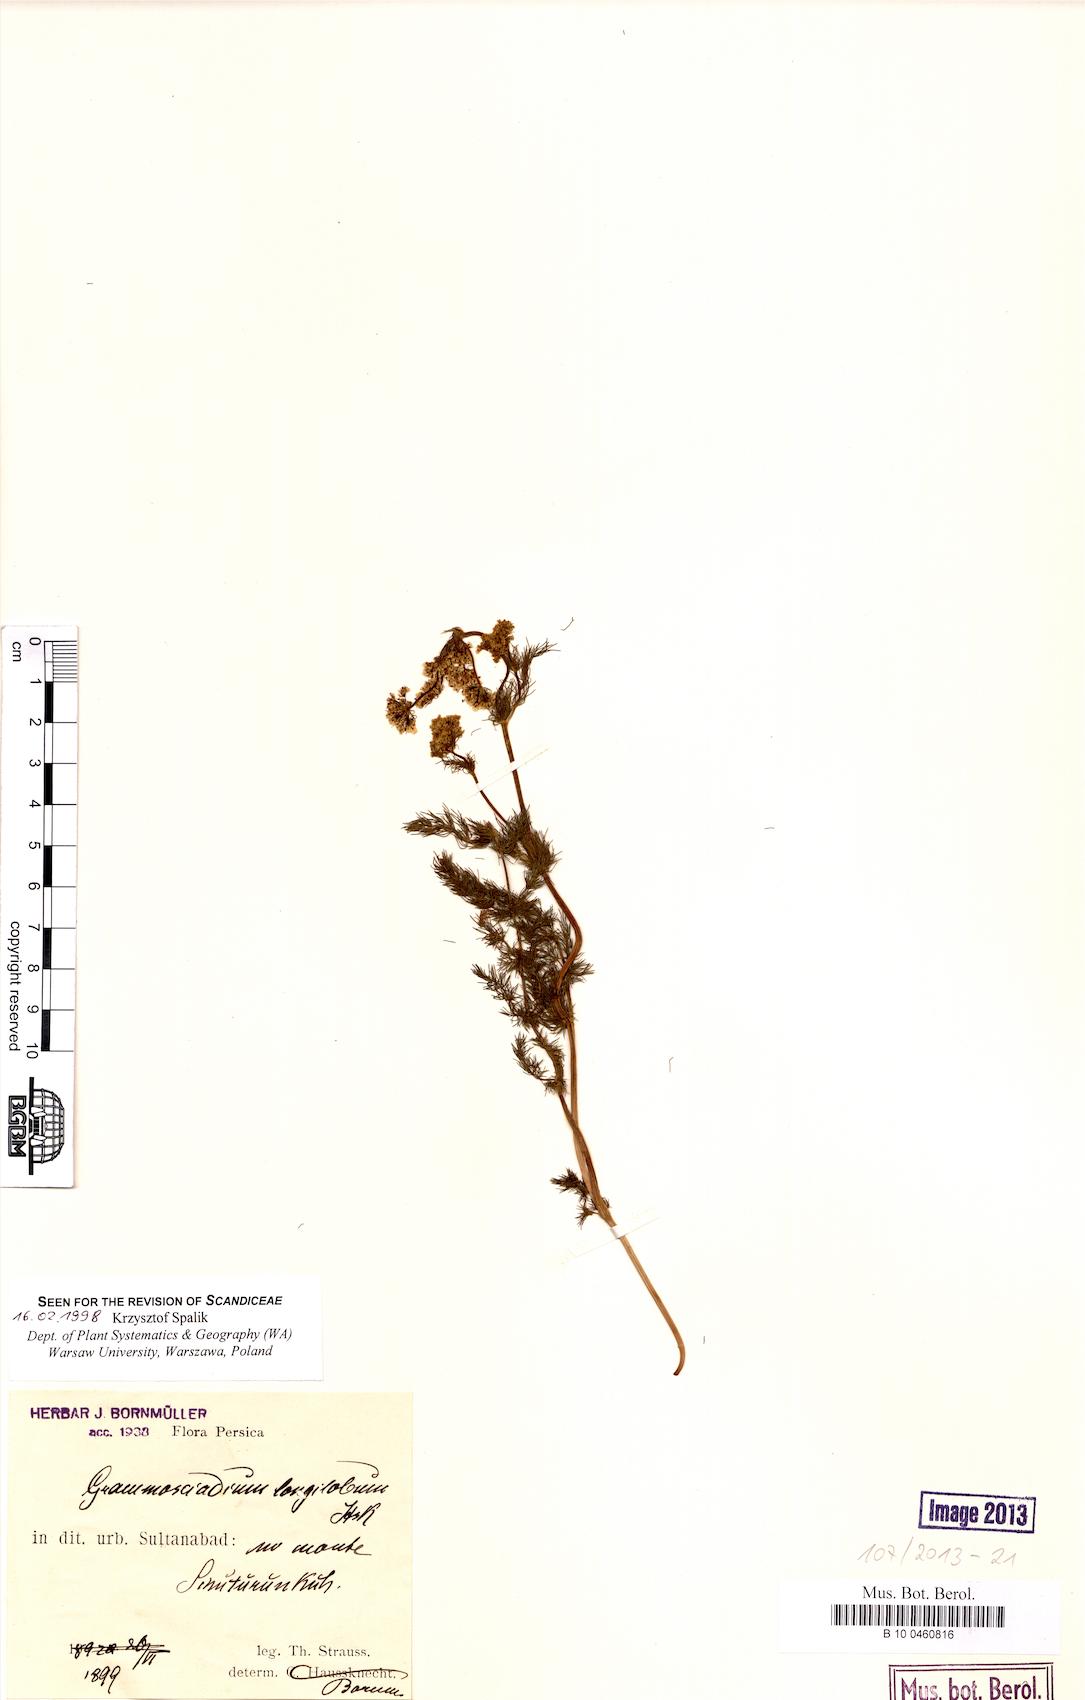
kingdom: Plantae
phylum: Tracheophyta
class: Magnoliopsida
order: Apiales
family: Apiaceae
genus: Grammosciadium
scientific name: Grammosciadium scabridum
